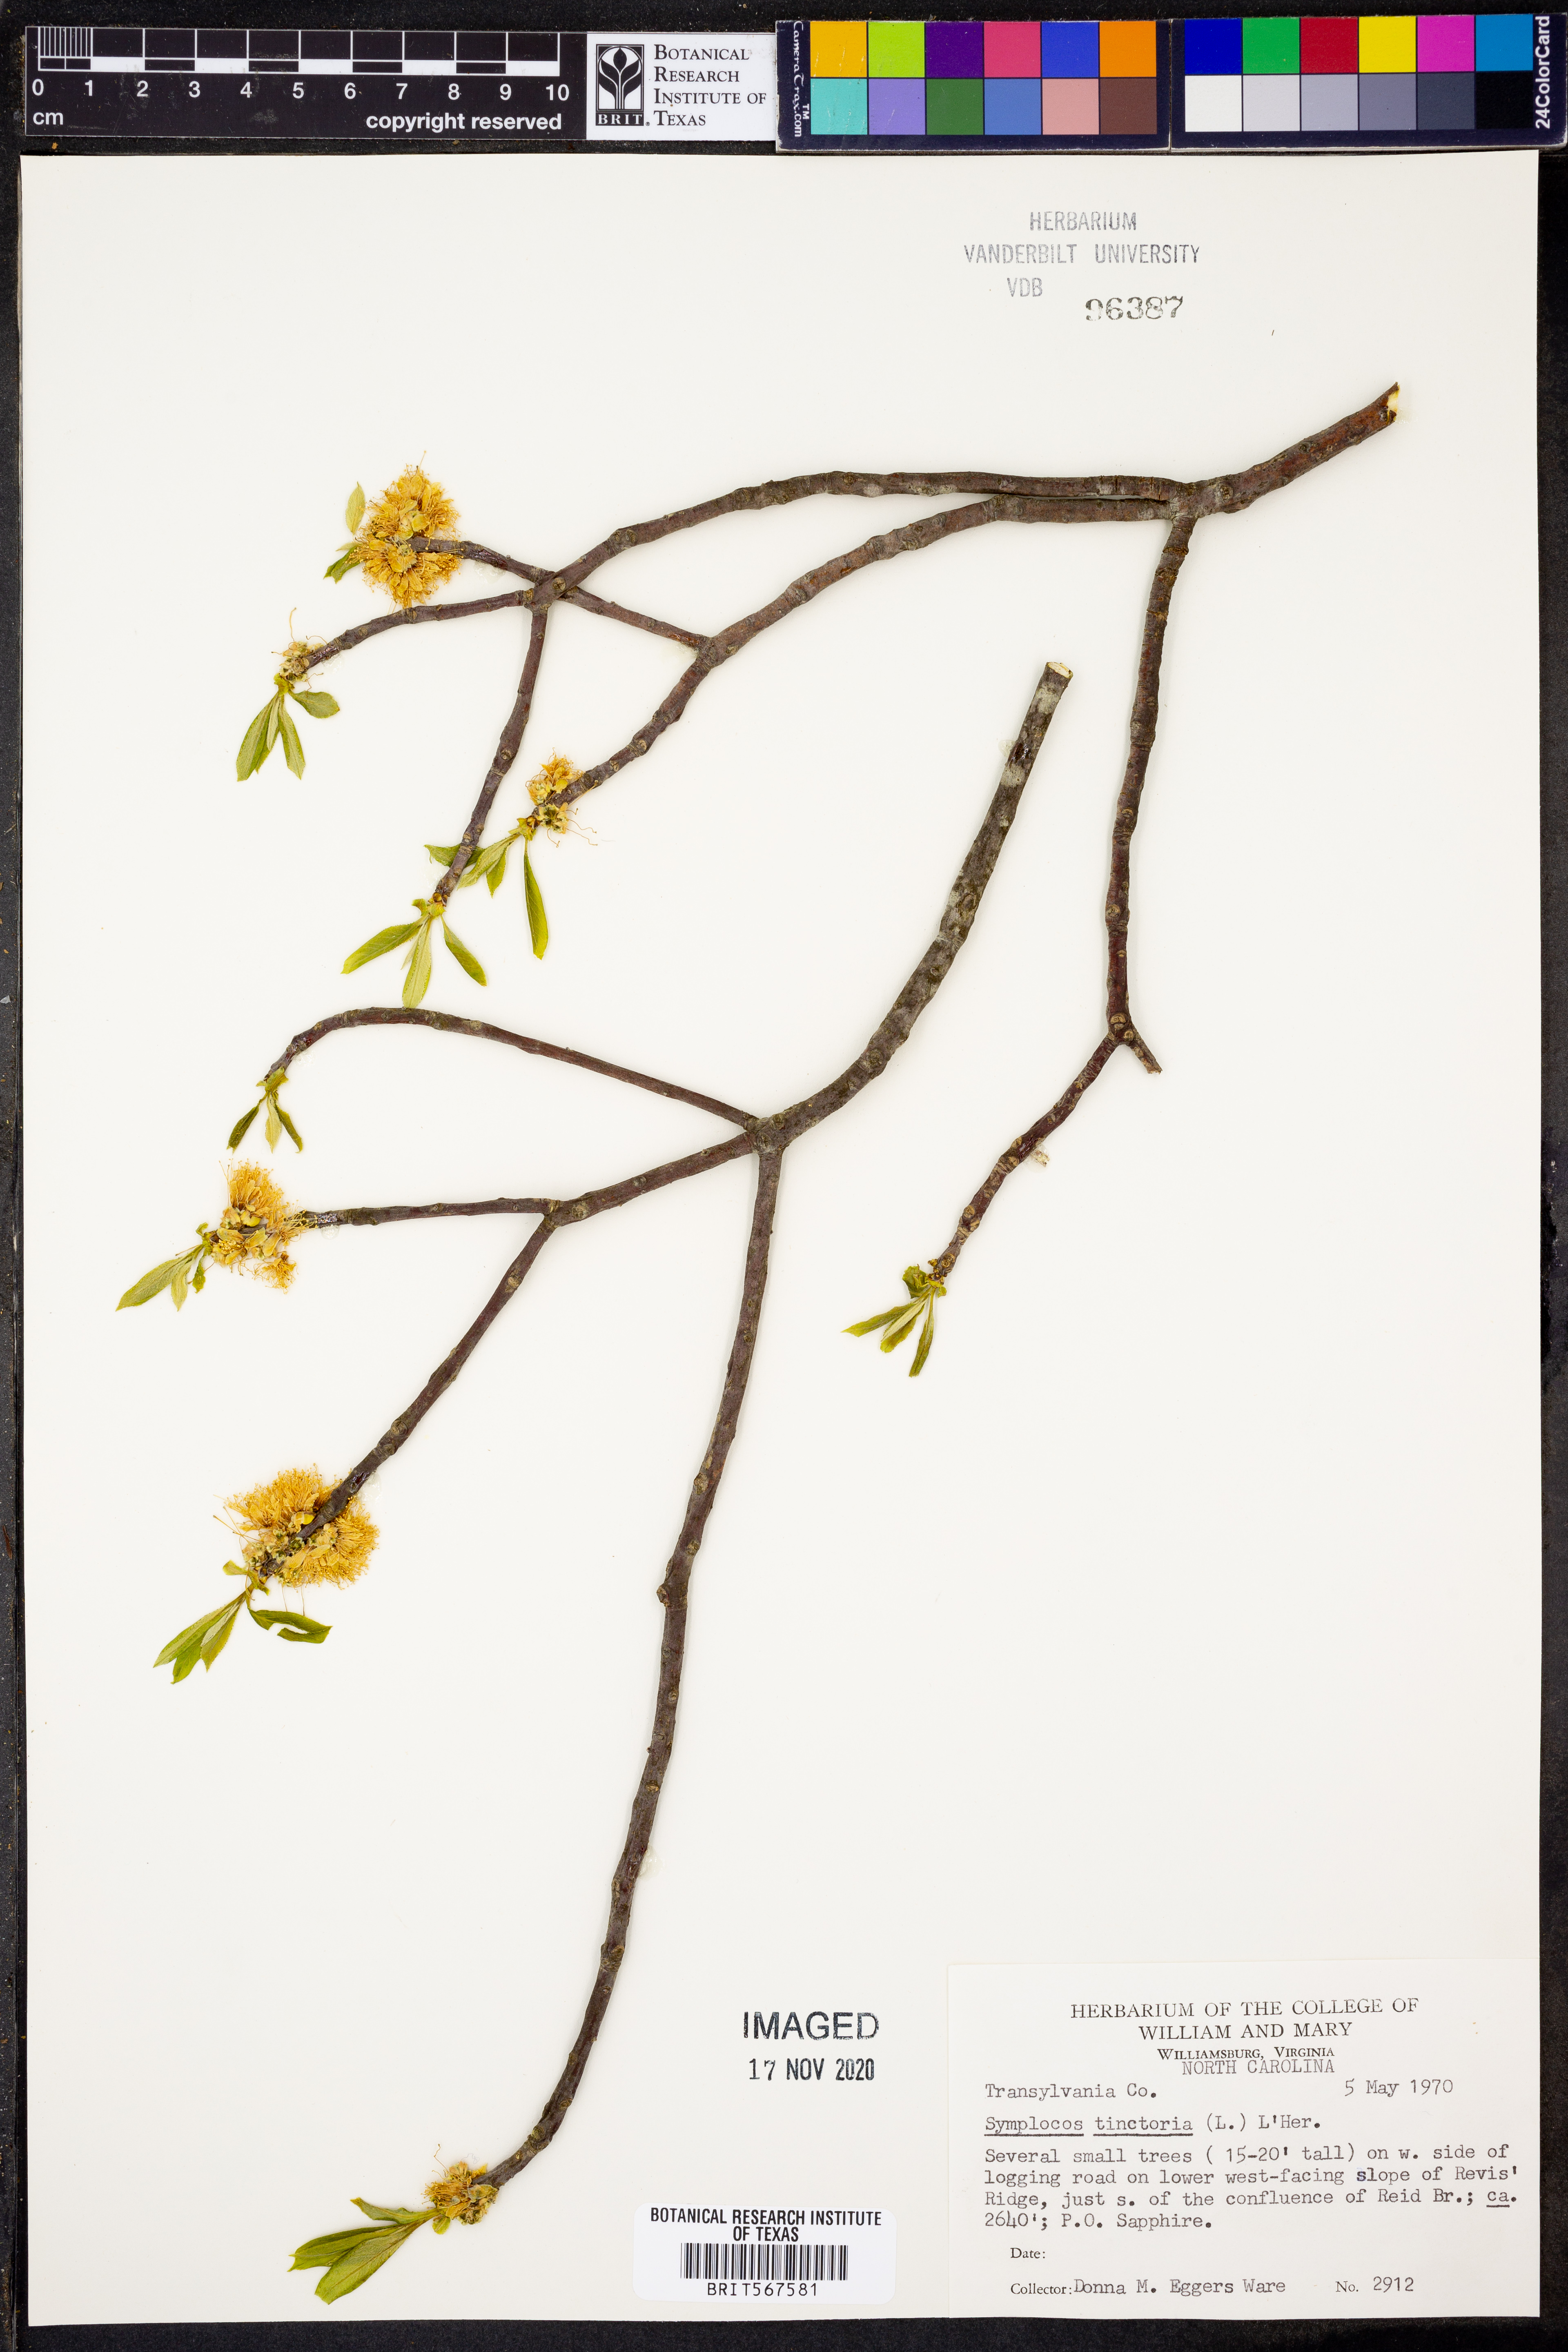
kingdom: Plantae
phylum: Tracheophyta
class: Magnoliopsida
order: Ericales
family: Symplocaceae
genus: Symplocos
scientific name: Symplocos tinctoria
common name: Horse-sugar
